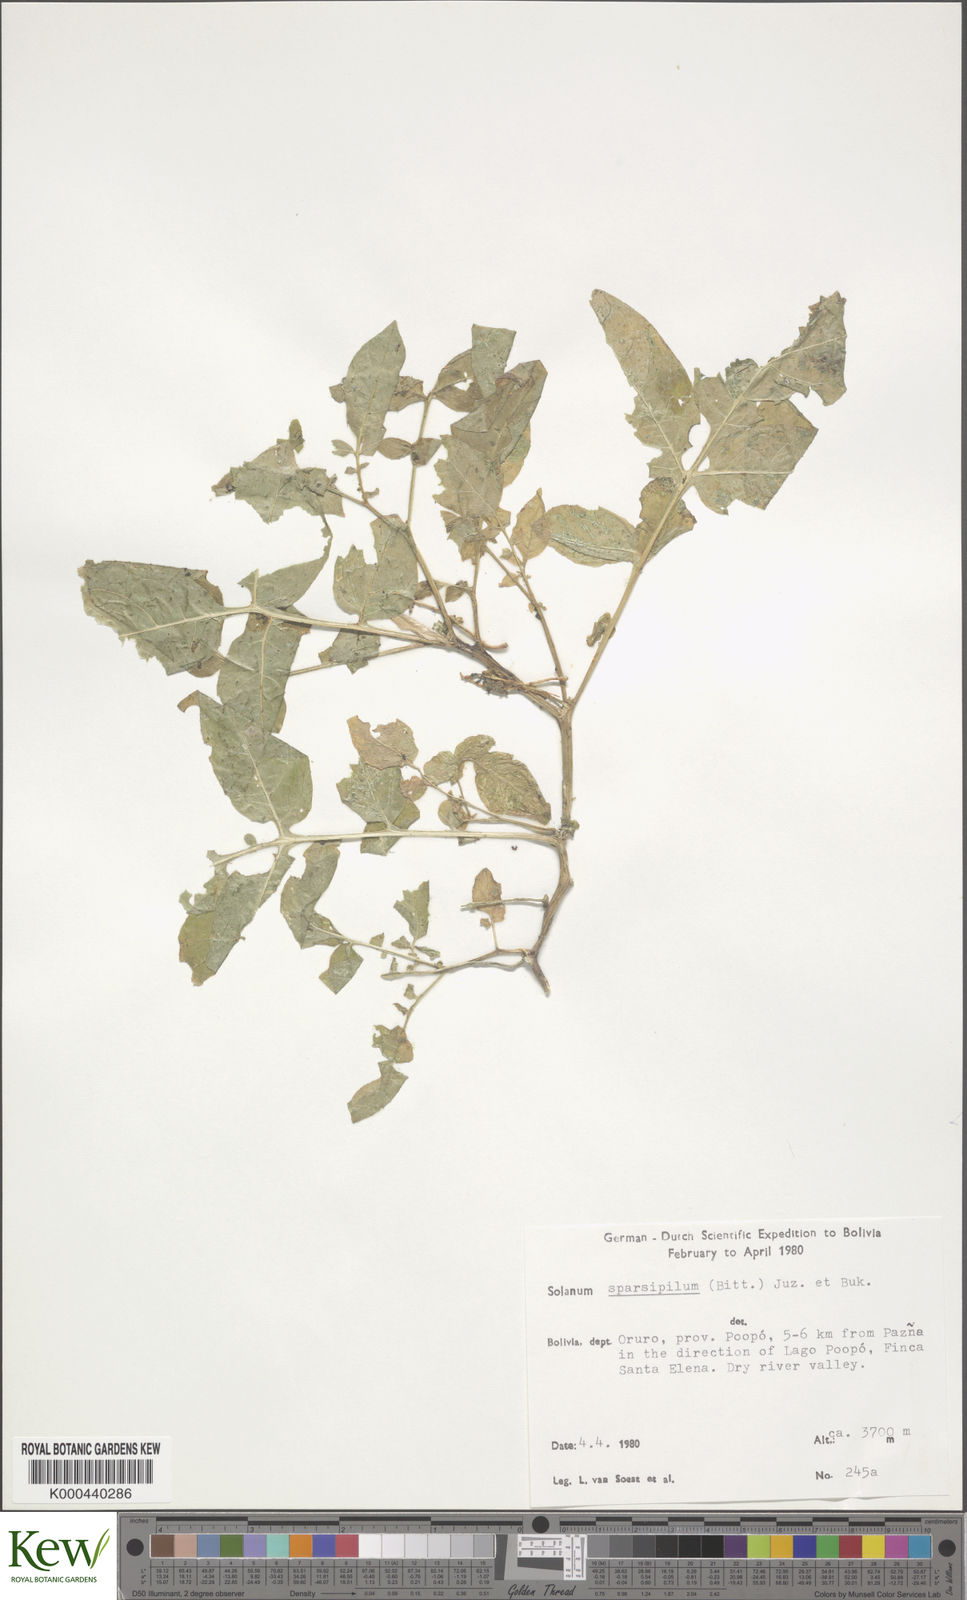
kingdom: Plantae
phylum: Tracheophyta
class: Magnoliopsida
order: Solanales
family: Solanaceae
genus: Solanum
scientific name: Solanum brevicaule
